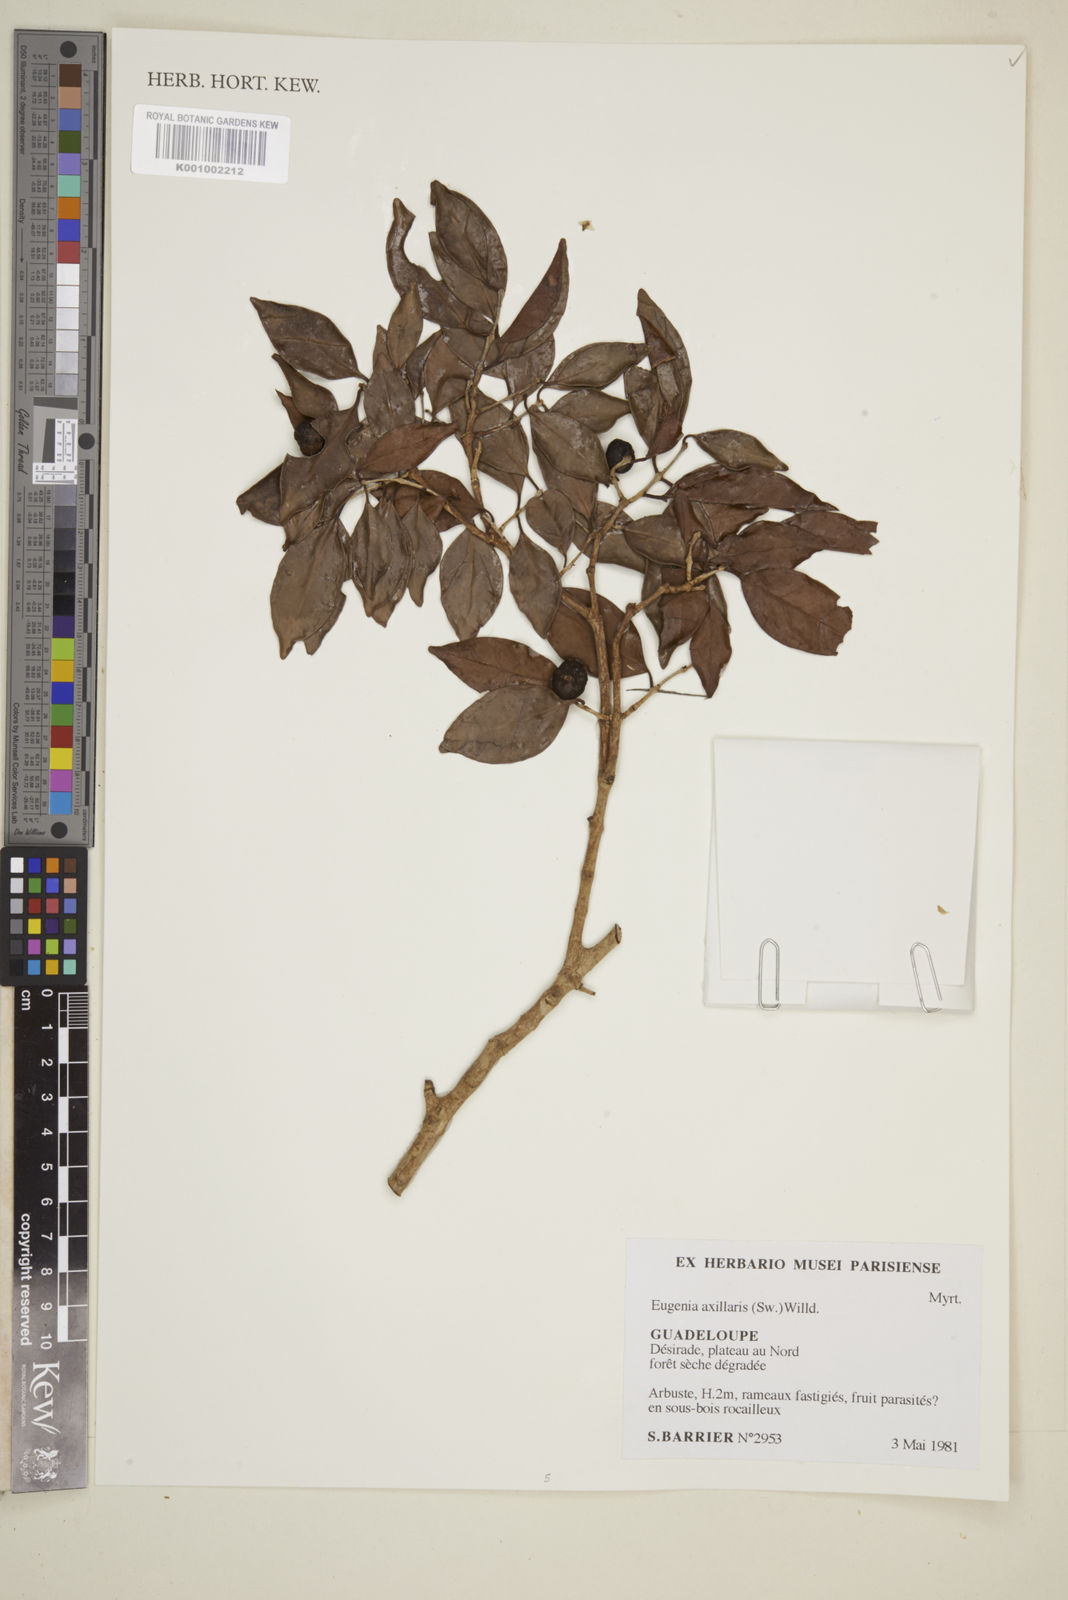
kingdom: Plantae
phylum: Tracheophyta
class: Magnoliopsida
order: Myrtales
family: Myrtaceae
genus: Eugenia
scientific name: Eugenia axillaris
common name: Choaky berry
